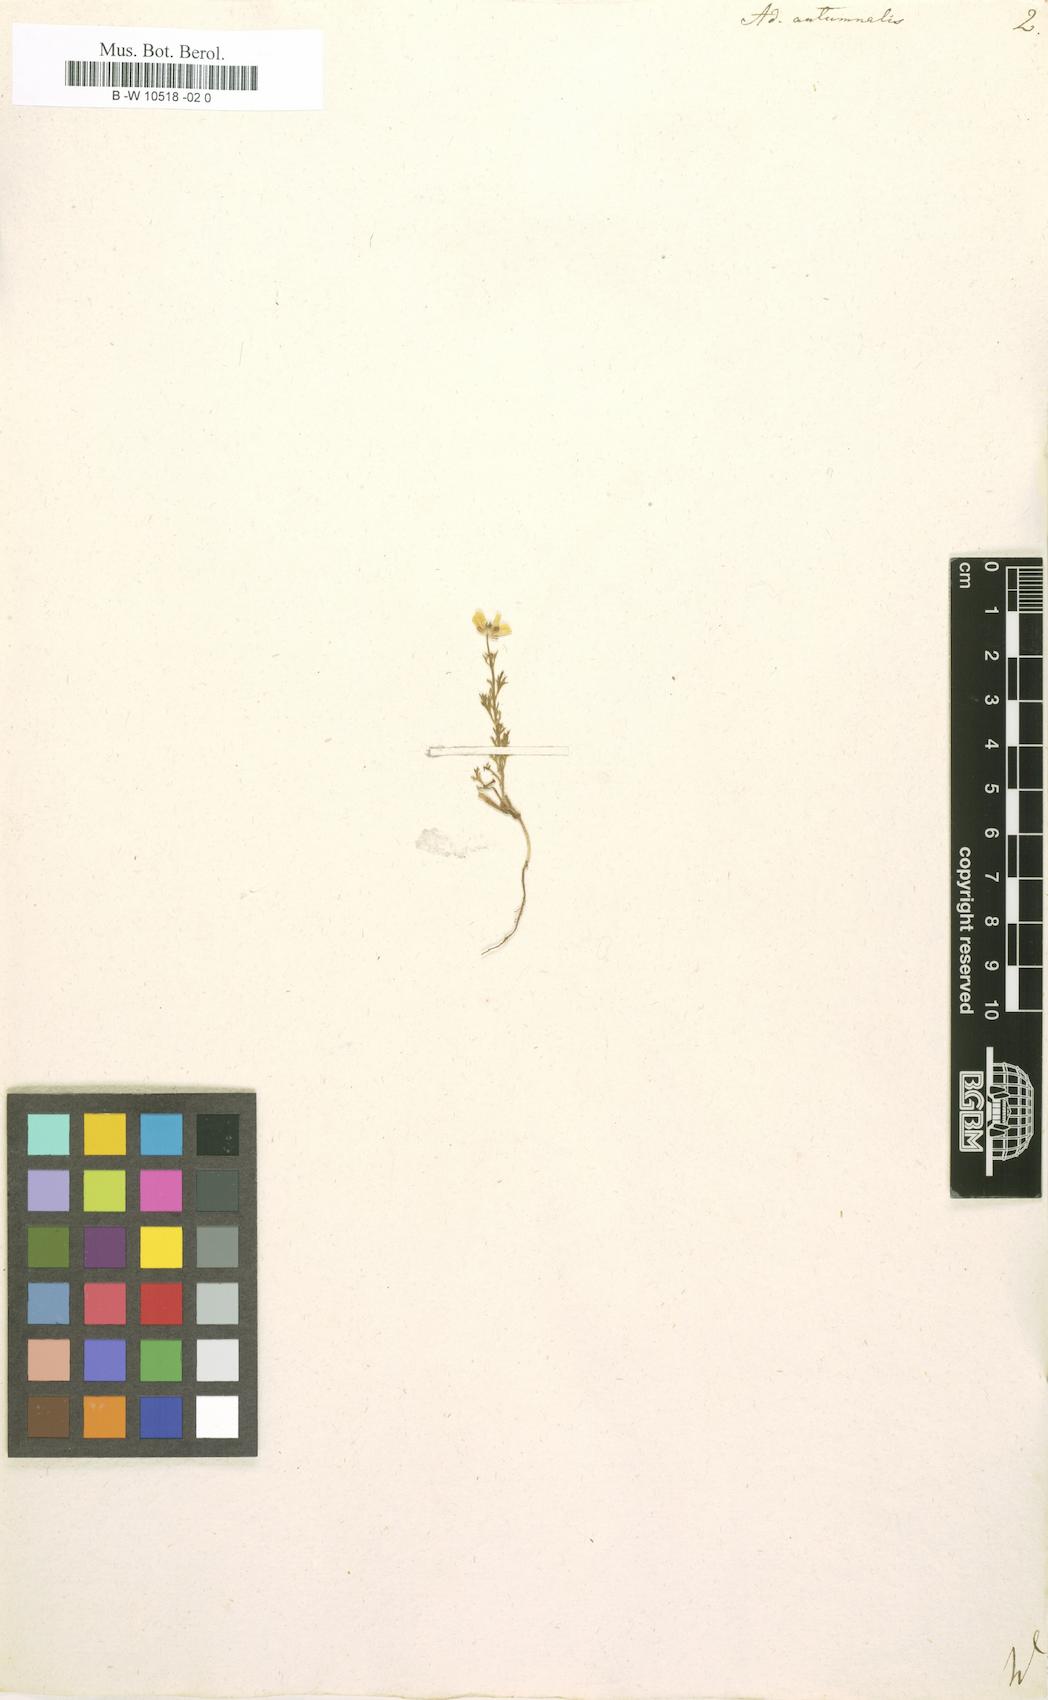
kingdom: Plantae
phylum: Tracheophyta
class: Magnoliopsida
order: Ranunculales
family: Ranunculaceae
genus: Adonis
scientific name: Adonis annua
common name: Pheasant's-eye
